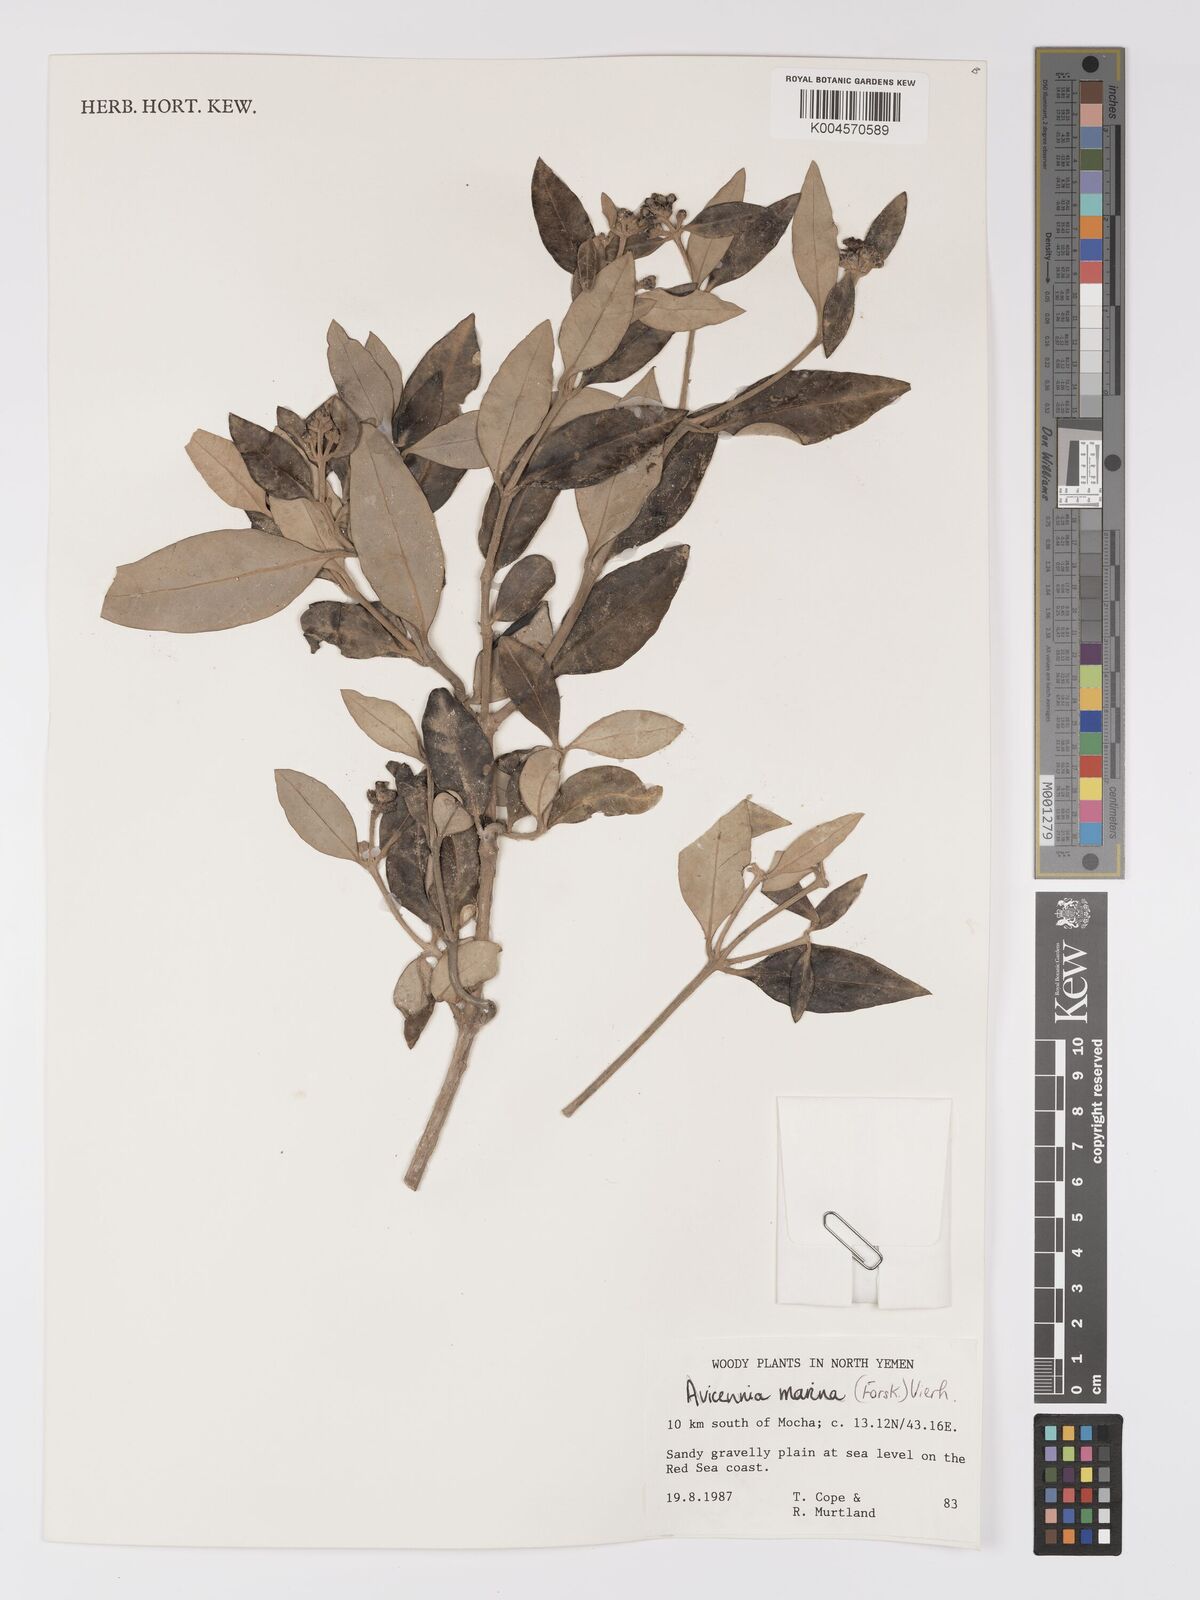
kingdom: Plantae
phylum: Tracheophyta
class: Magnoliopsida
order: Lamiales
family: Acanthaceae
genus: Avicennia
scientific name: Avicennia marina
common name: Gray mangrove
